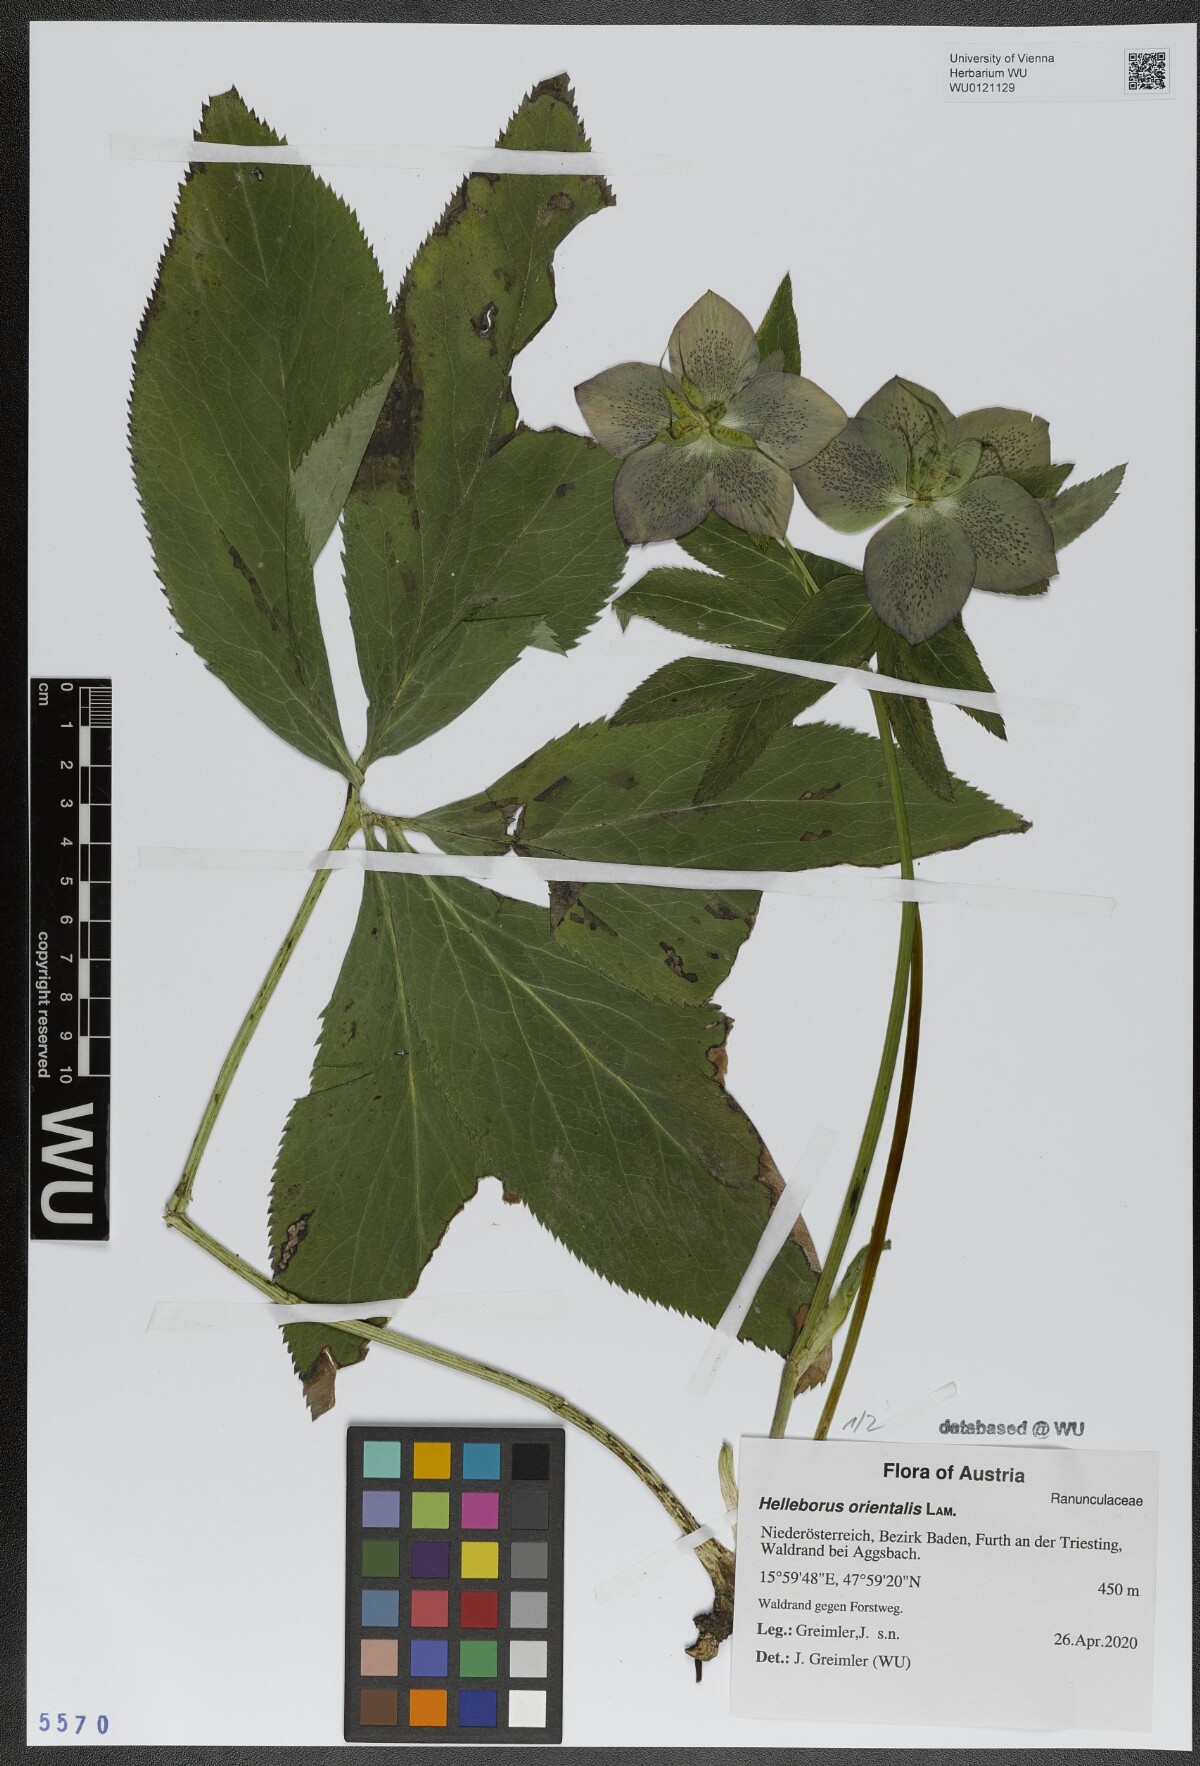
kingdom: Plantae
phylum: Tracheophyta
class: Magnoliopsida
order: Ranunculales
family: Ranunculaceae
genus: Helleborus
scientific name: Helleborus orientalis
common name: Lenten-rose
